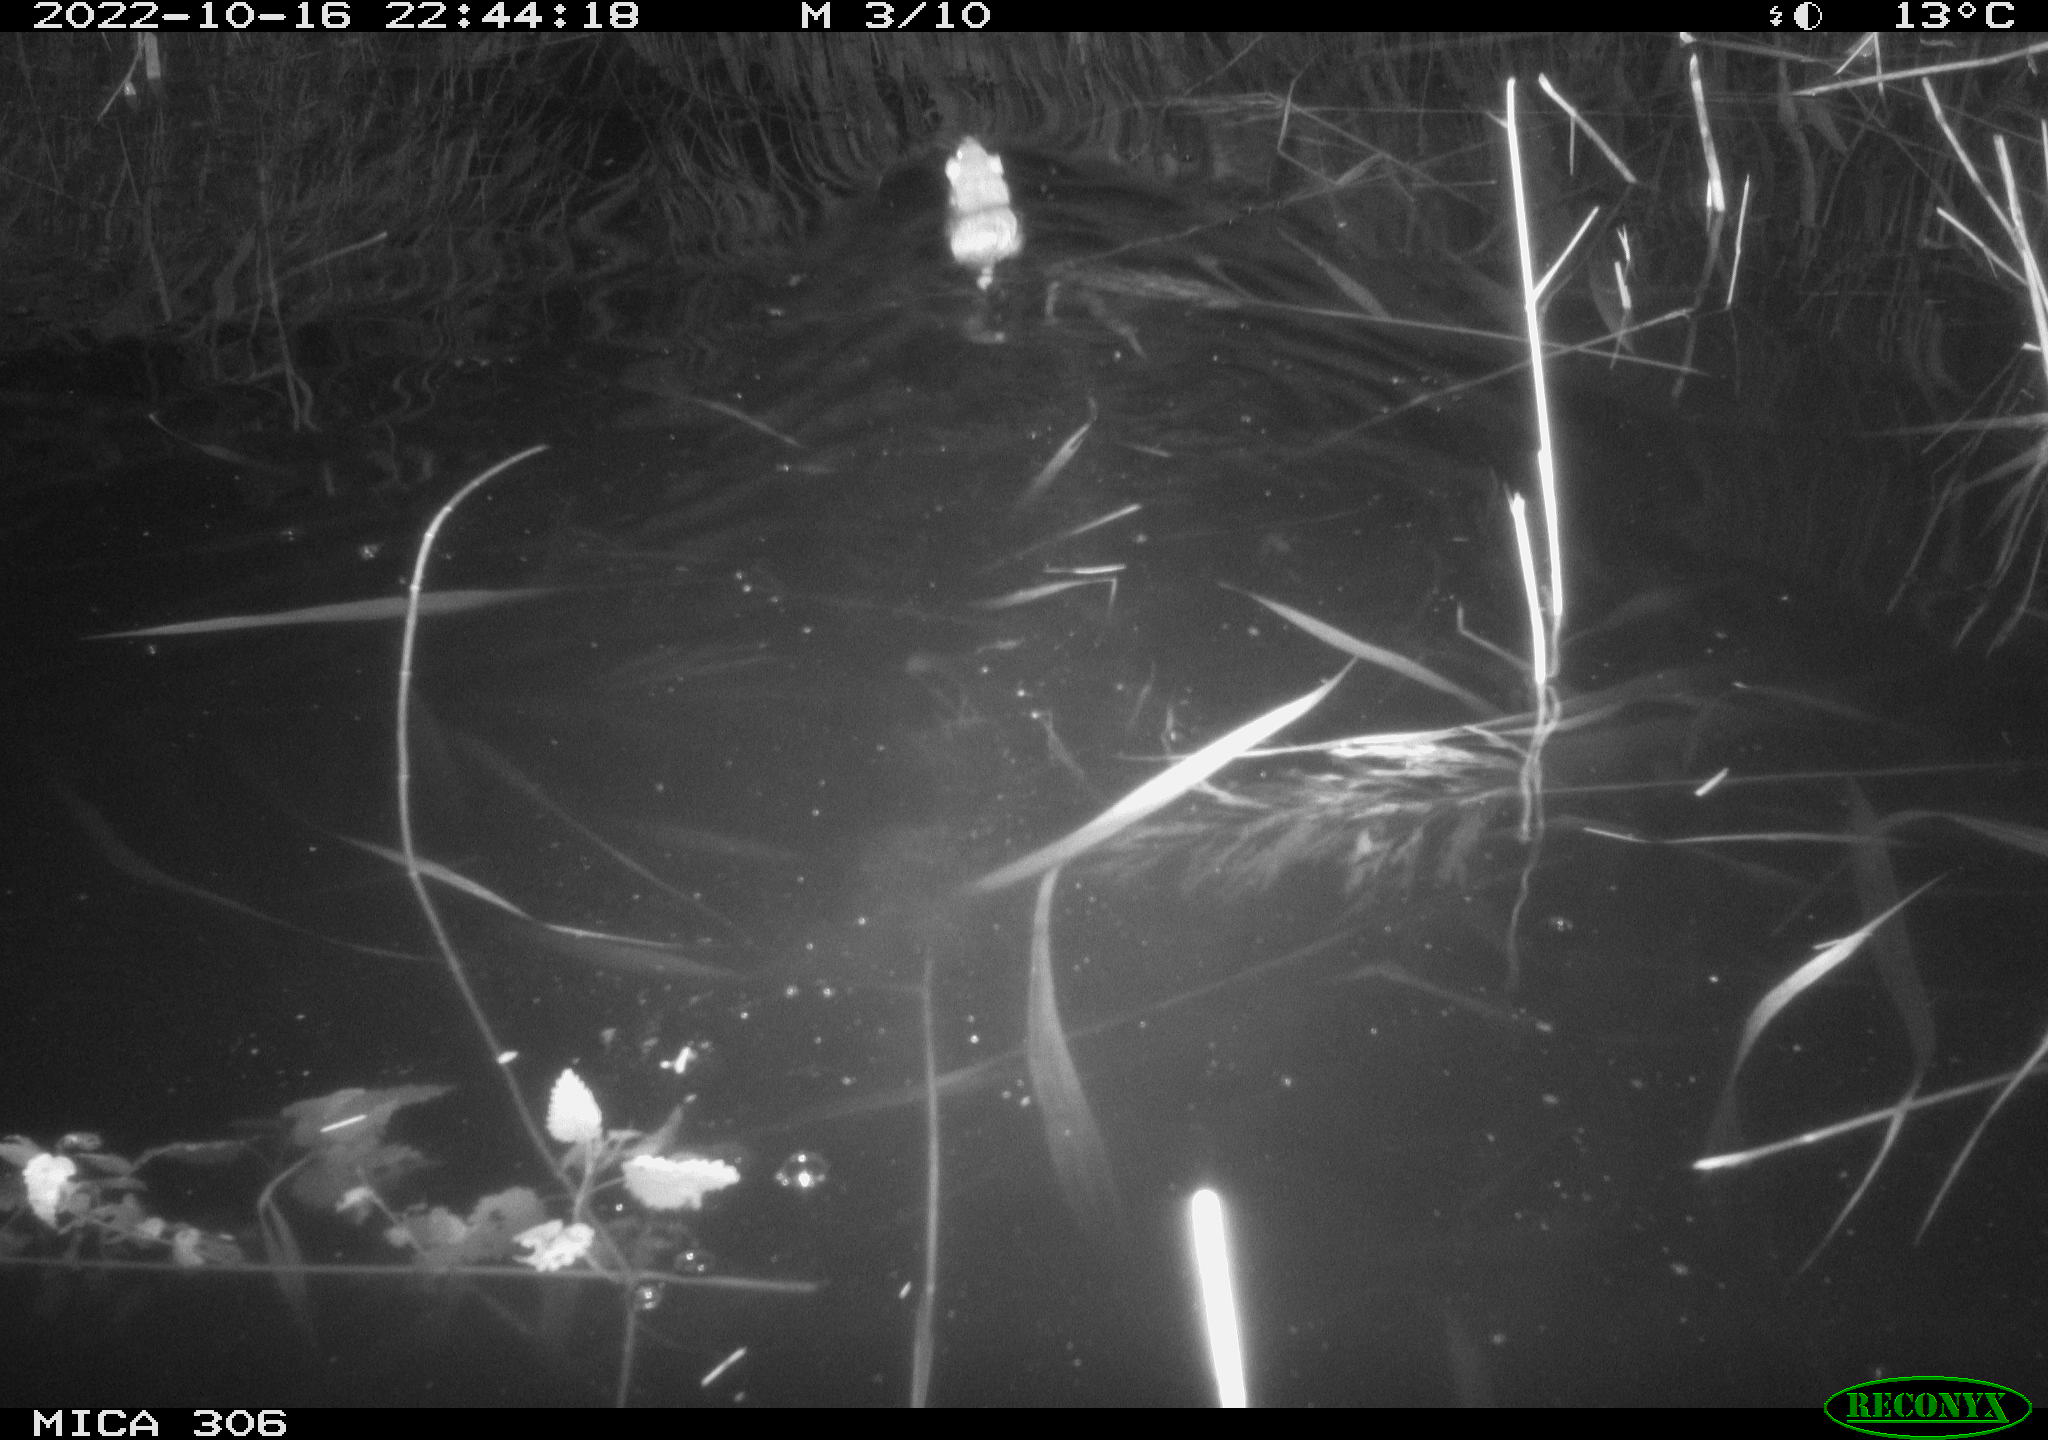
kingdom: Animalia
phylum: Chordata
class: Mammalia
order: Rodentia
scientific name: Rodentia
